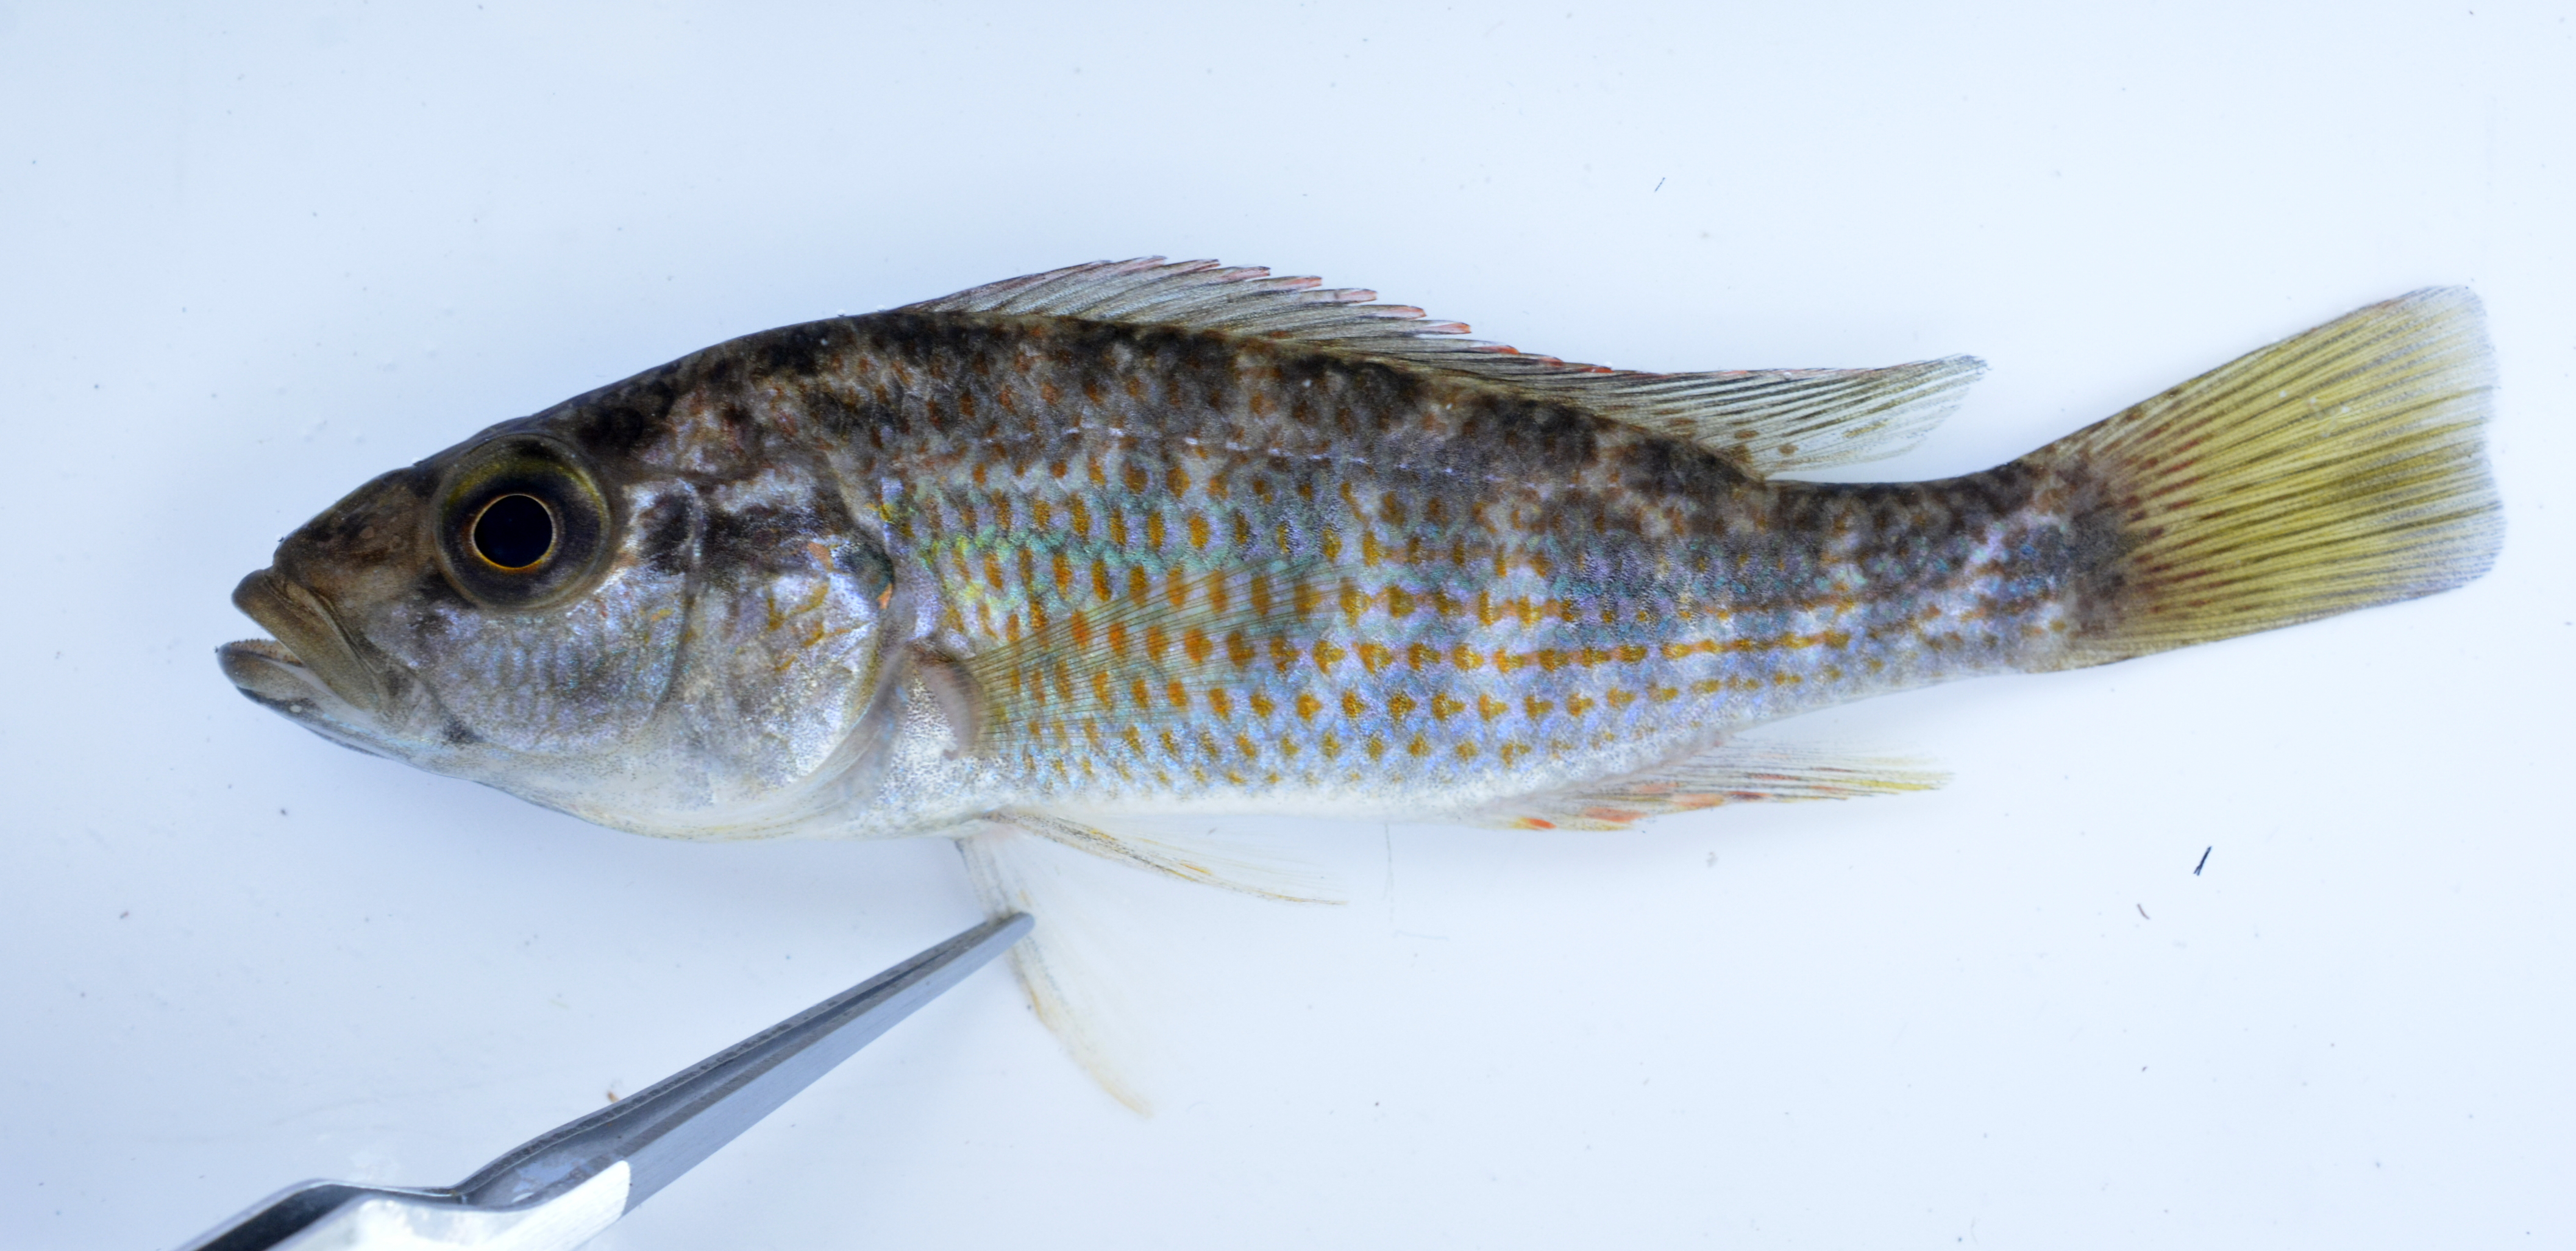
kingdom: Animalia
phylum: Chordata
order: Perciformes
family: Cichlidae
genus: Pharyngochromis
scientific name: Pharyngochromis acuticeps
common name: Zambezi happy
